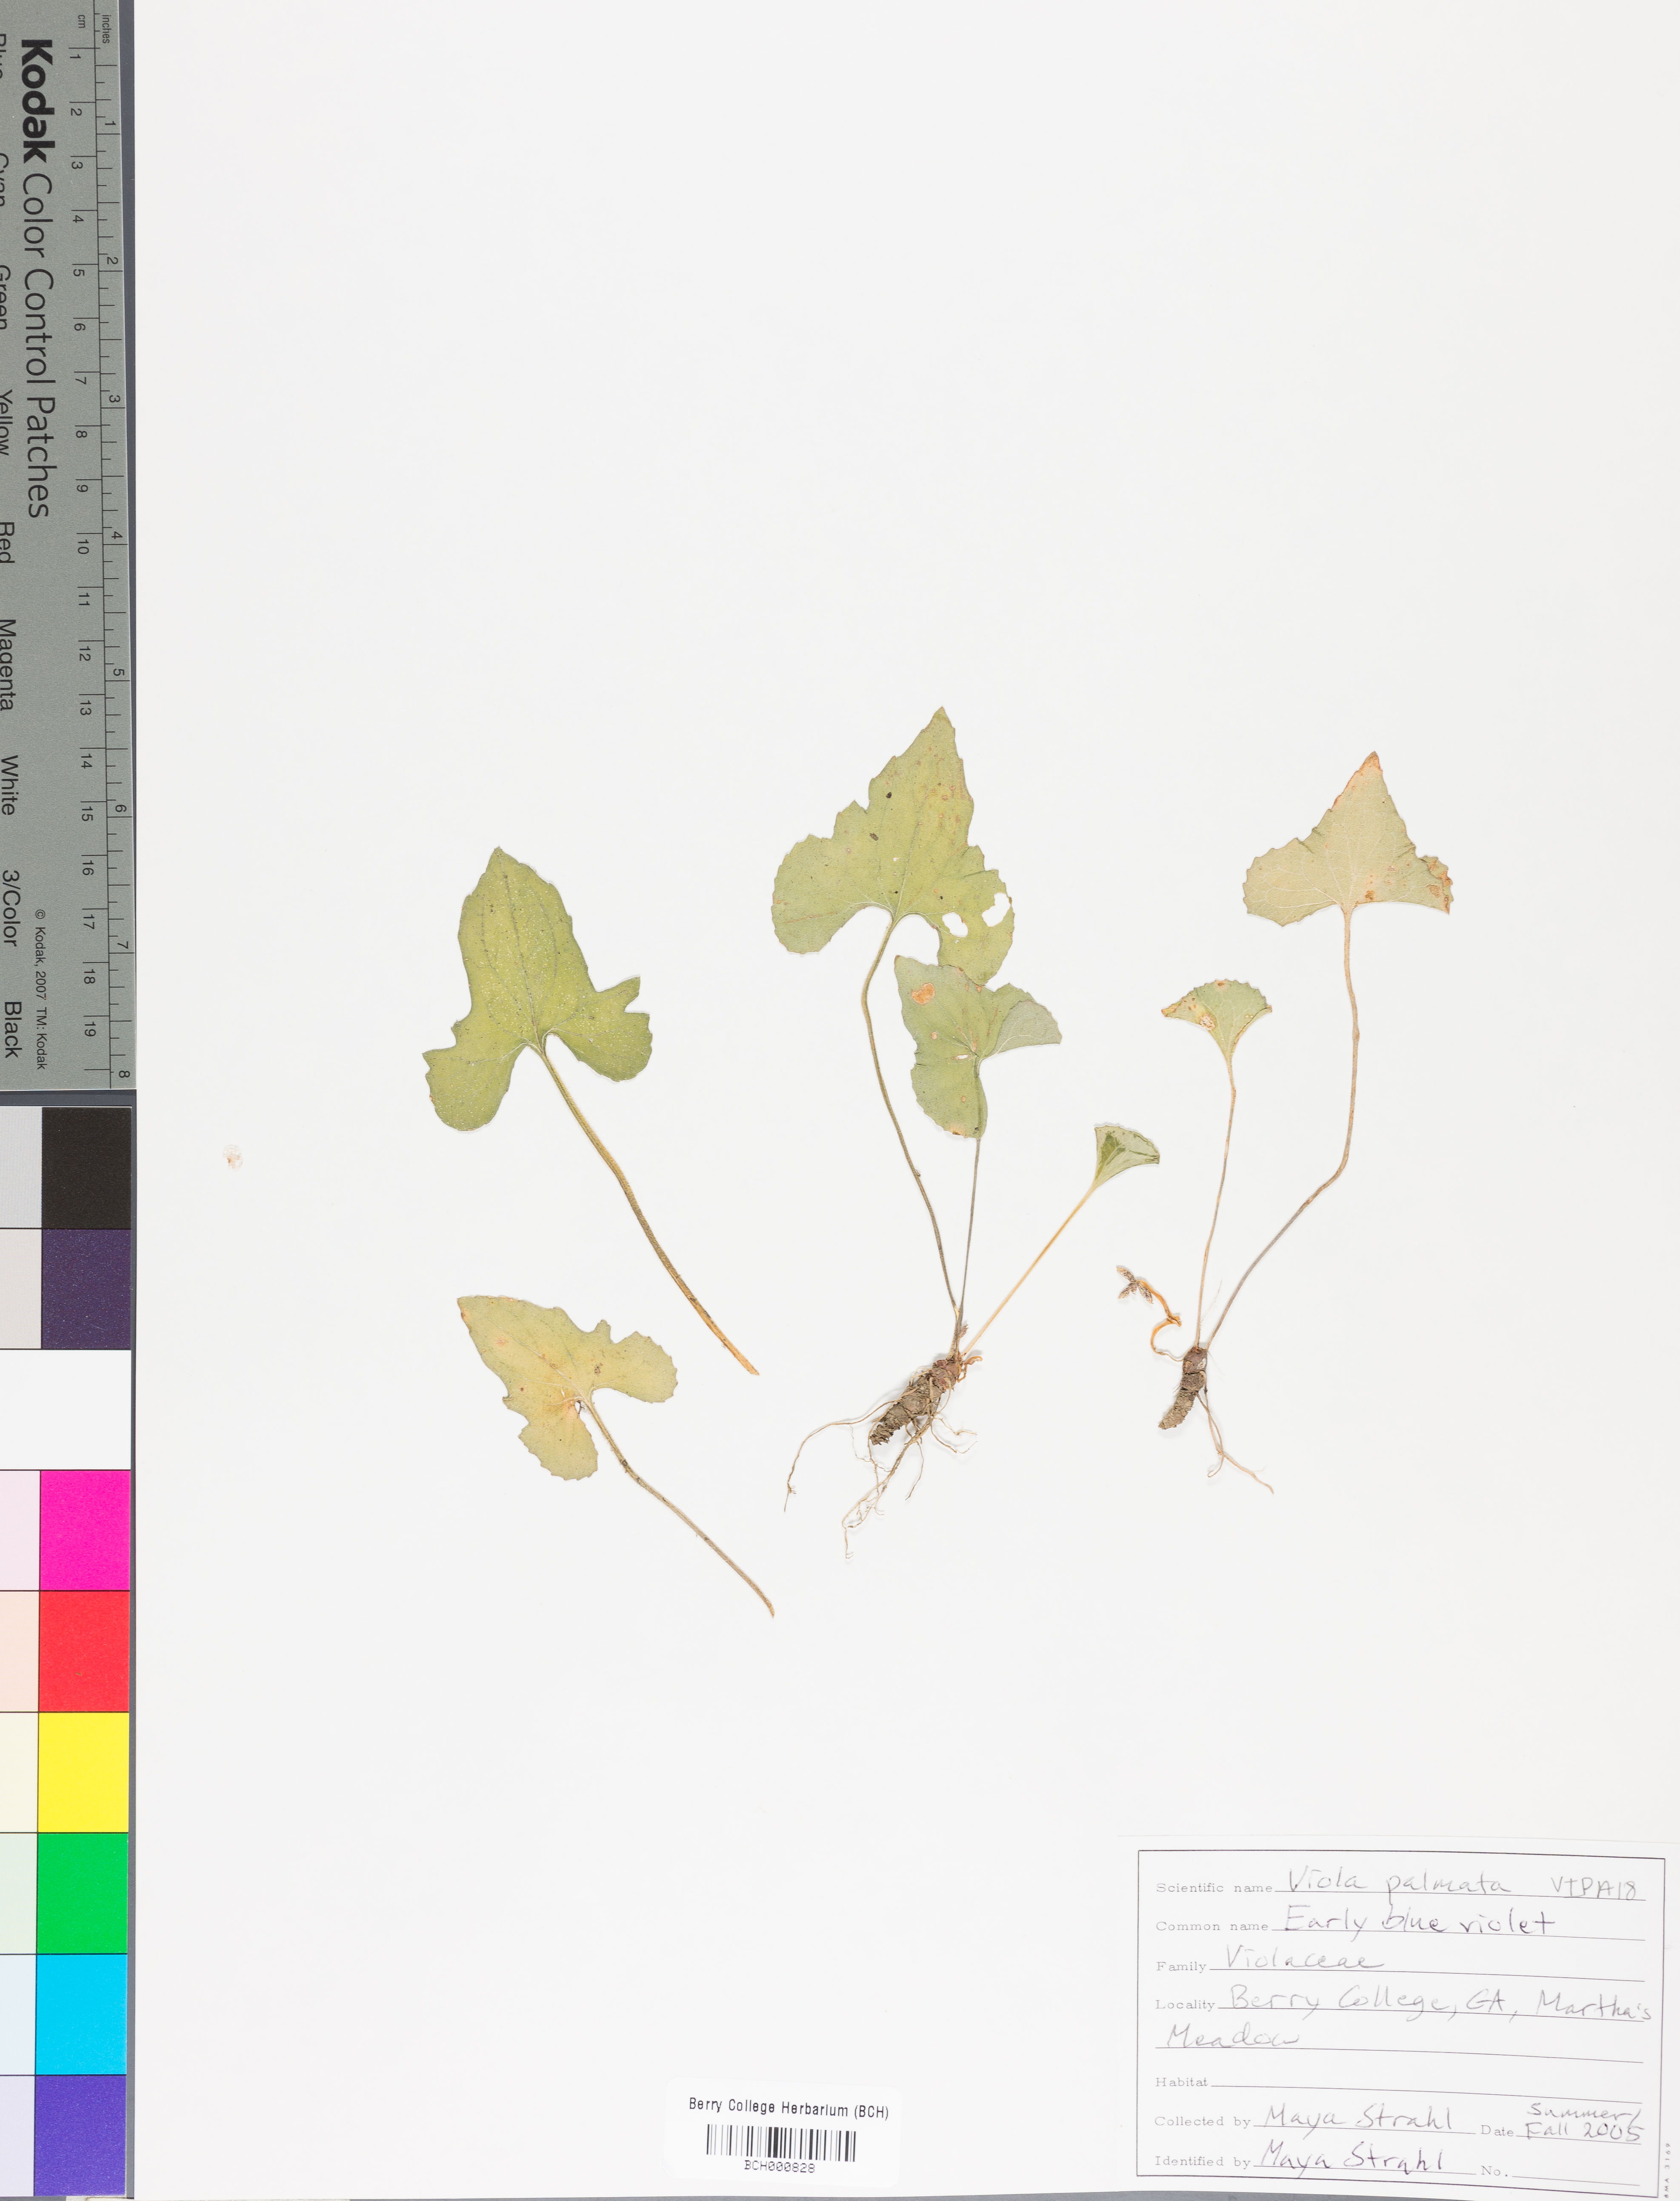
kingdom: Plantae
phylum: Tracheophyta
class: Magnoliopsida
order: Malpighiales
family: Violaceae
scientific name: Violaceae
